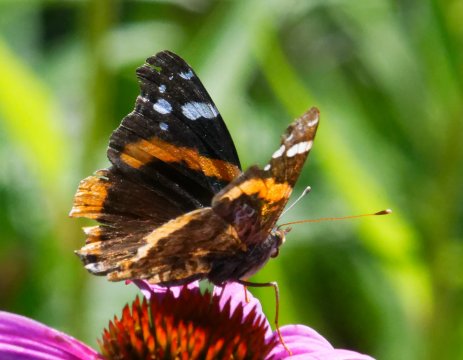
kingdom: Animalia
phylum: Arthropoda
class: Insecta
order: Lepidoptera
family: Nymphalidae
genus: Vanessa
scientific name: Vanessa atalanta
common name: Red Admiral
